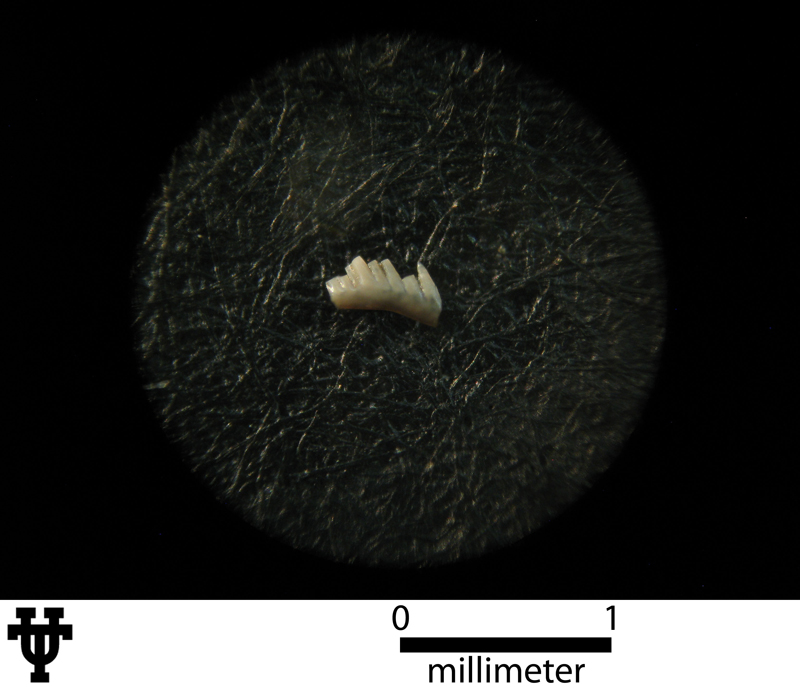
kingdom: Animalia
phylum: Chordata
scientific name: Chordata
